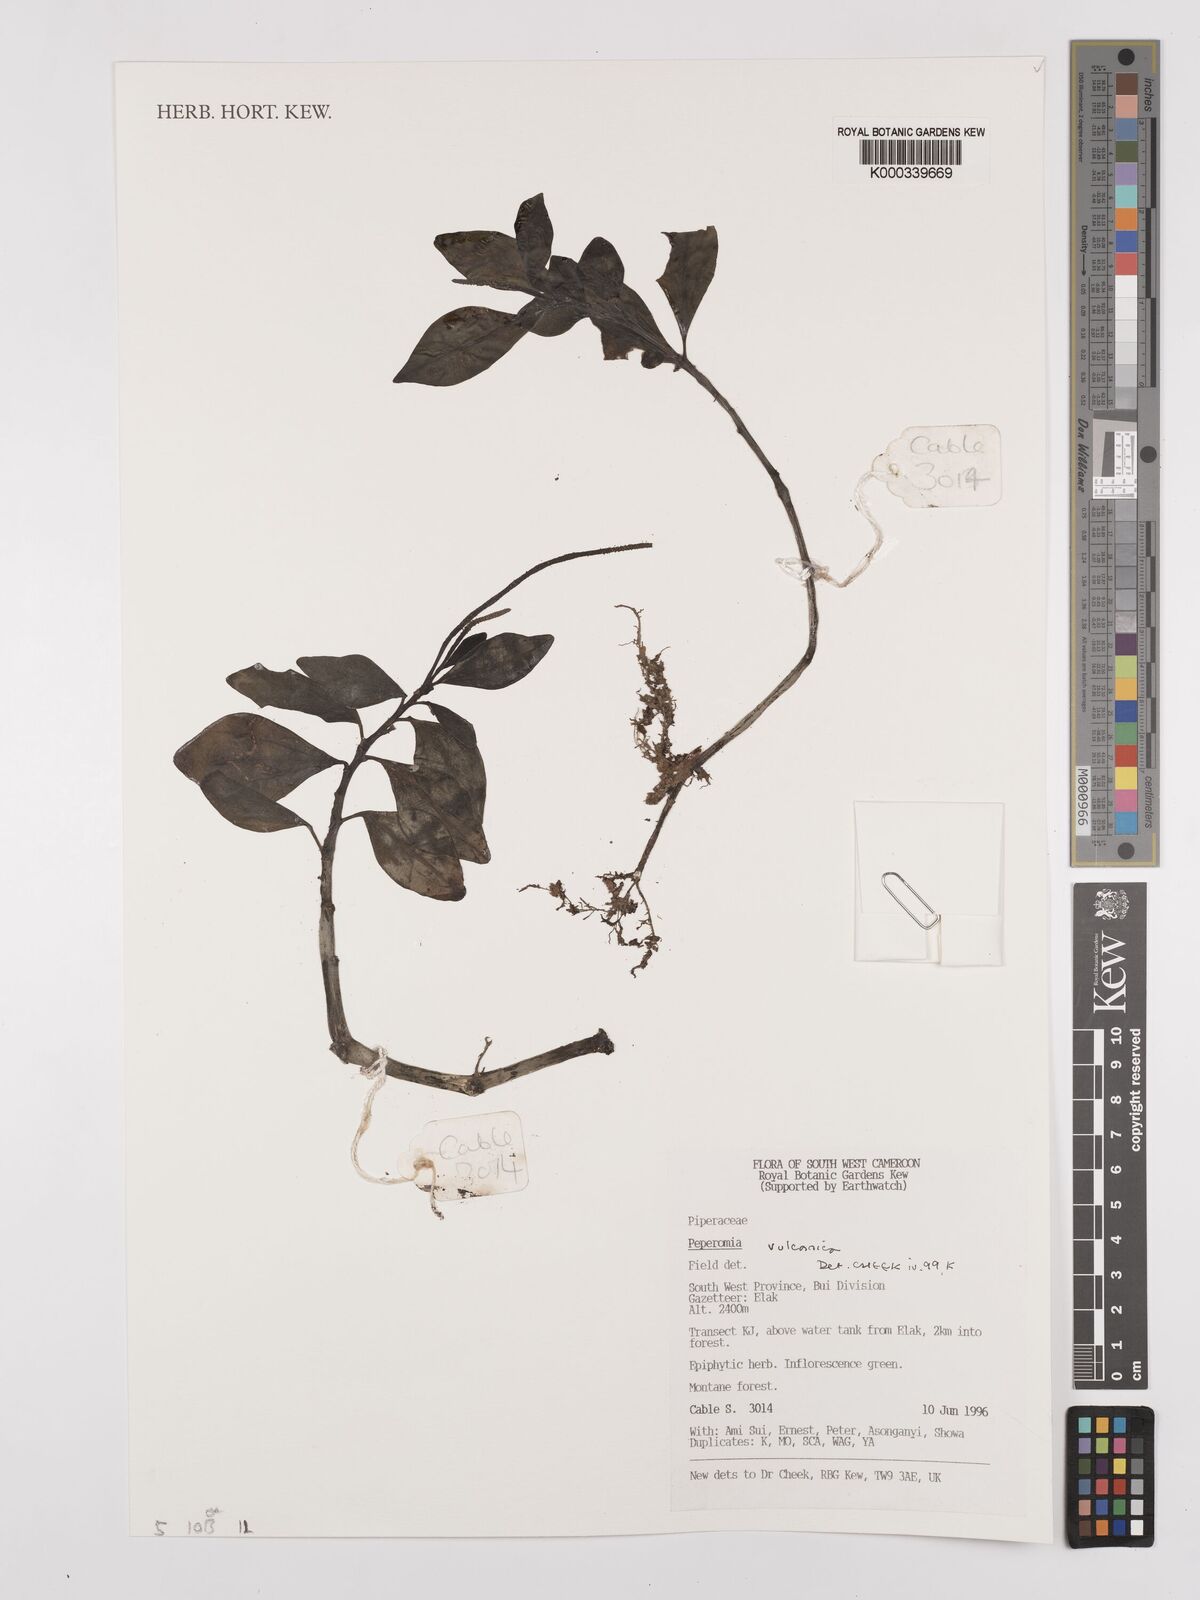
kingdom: Plantae
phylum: Tracheophyta
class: Magnoliopsida
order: Piperales
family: Piperaceae
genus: Peperomia
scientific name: Peperomia vulcanica
